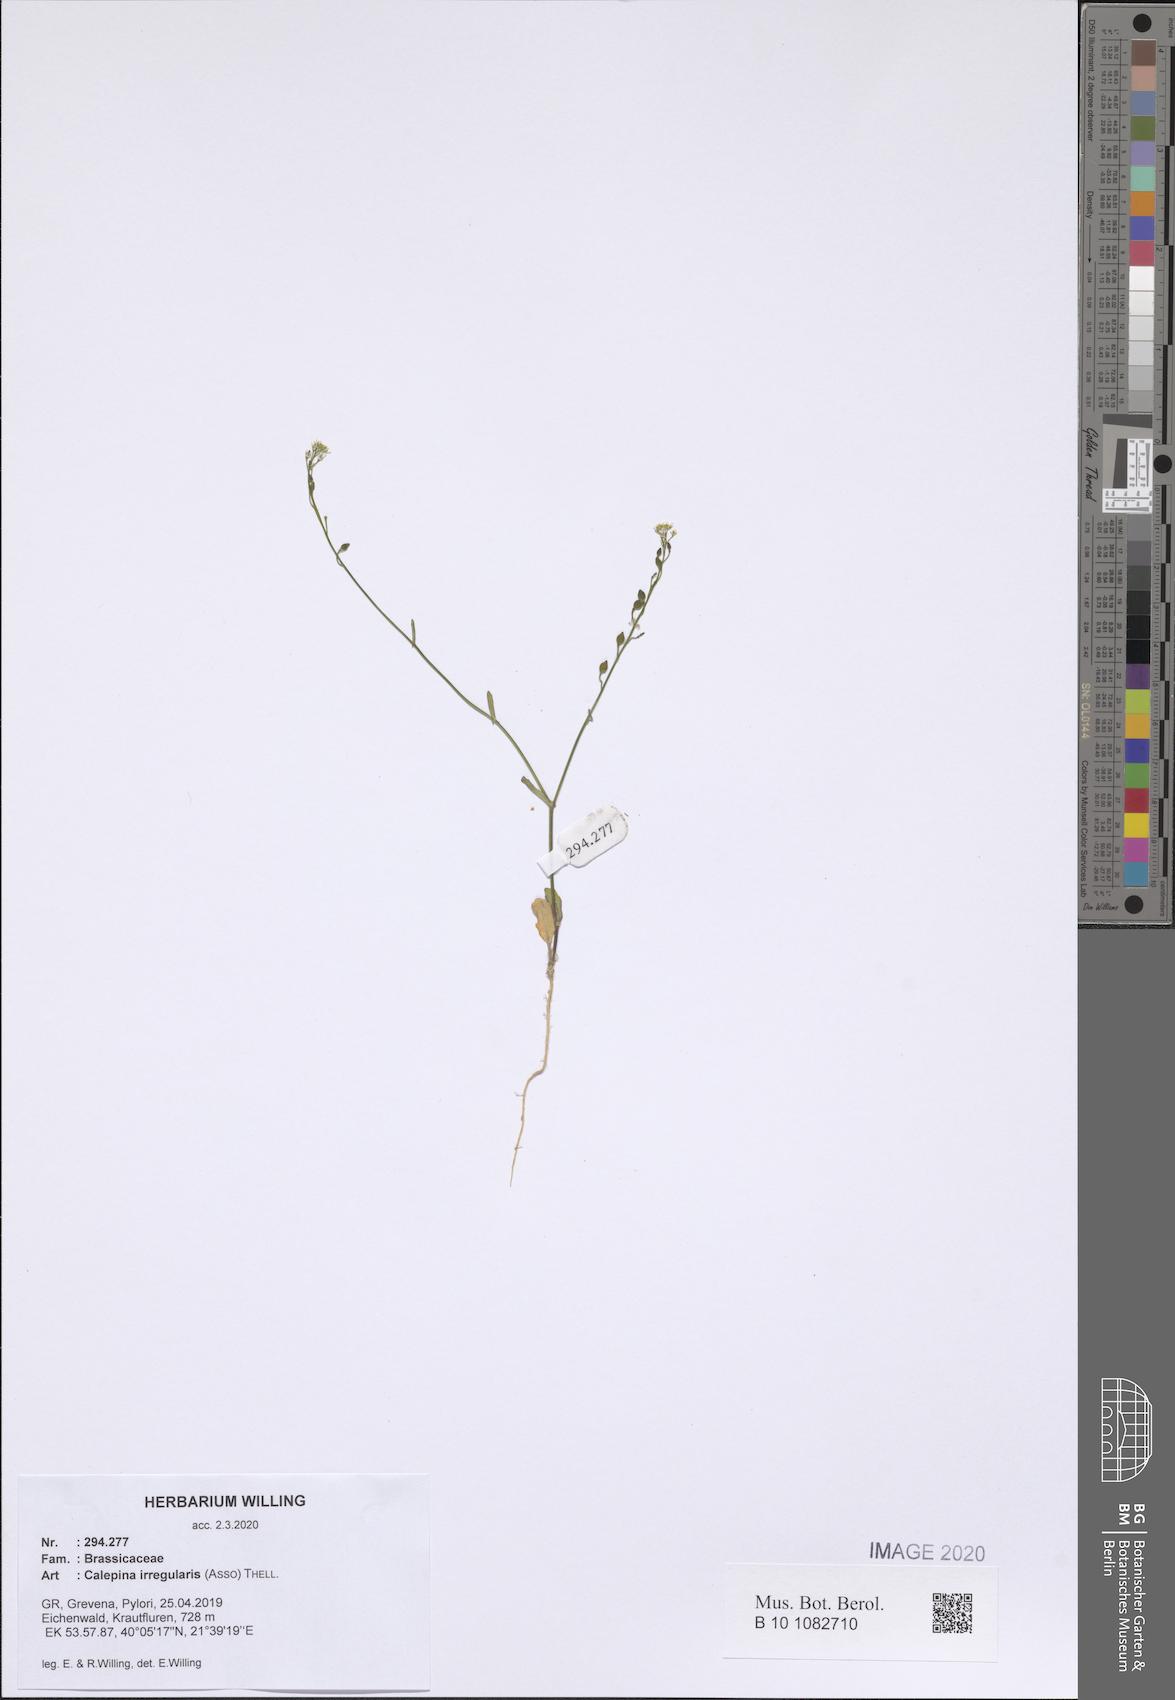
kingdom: Plantae
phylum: Tracheophyta
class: Magnoliopsida
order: Brassicales
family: Brassicaceae
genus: Calepina
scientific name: Calepina irregularis
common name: White ballmustard
